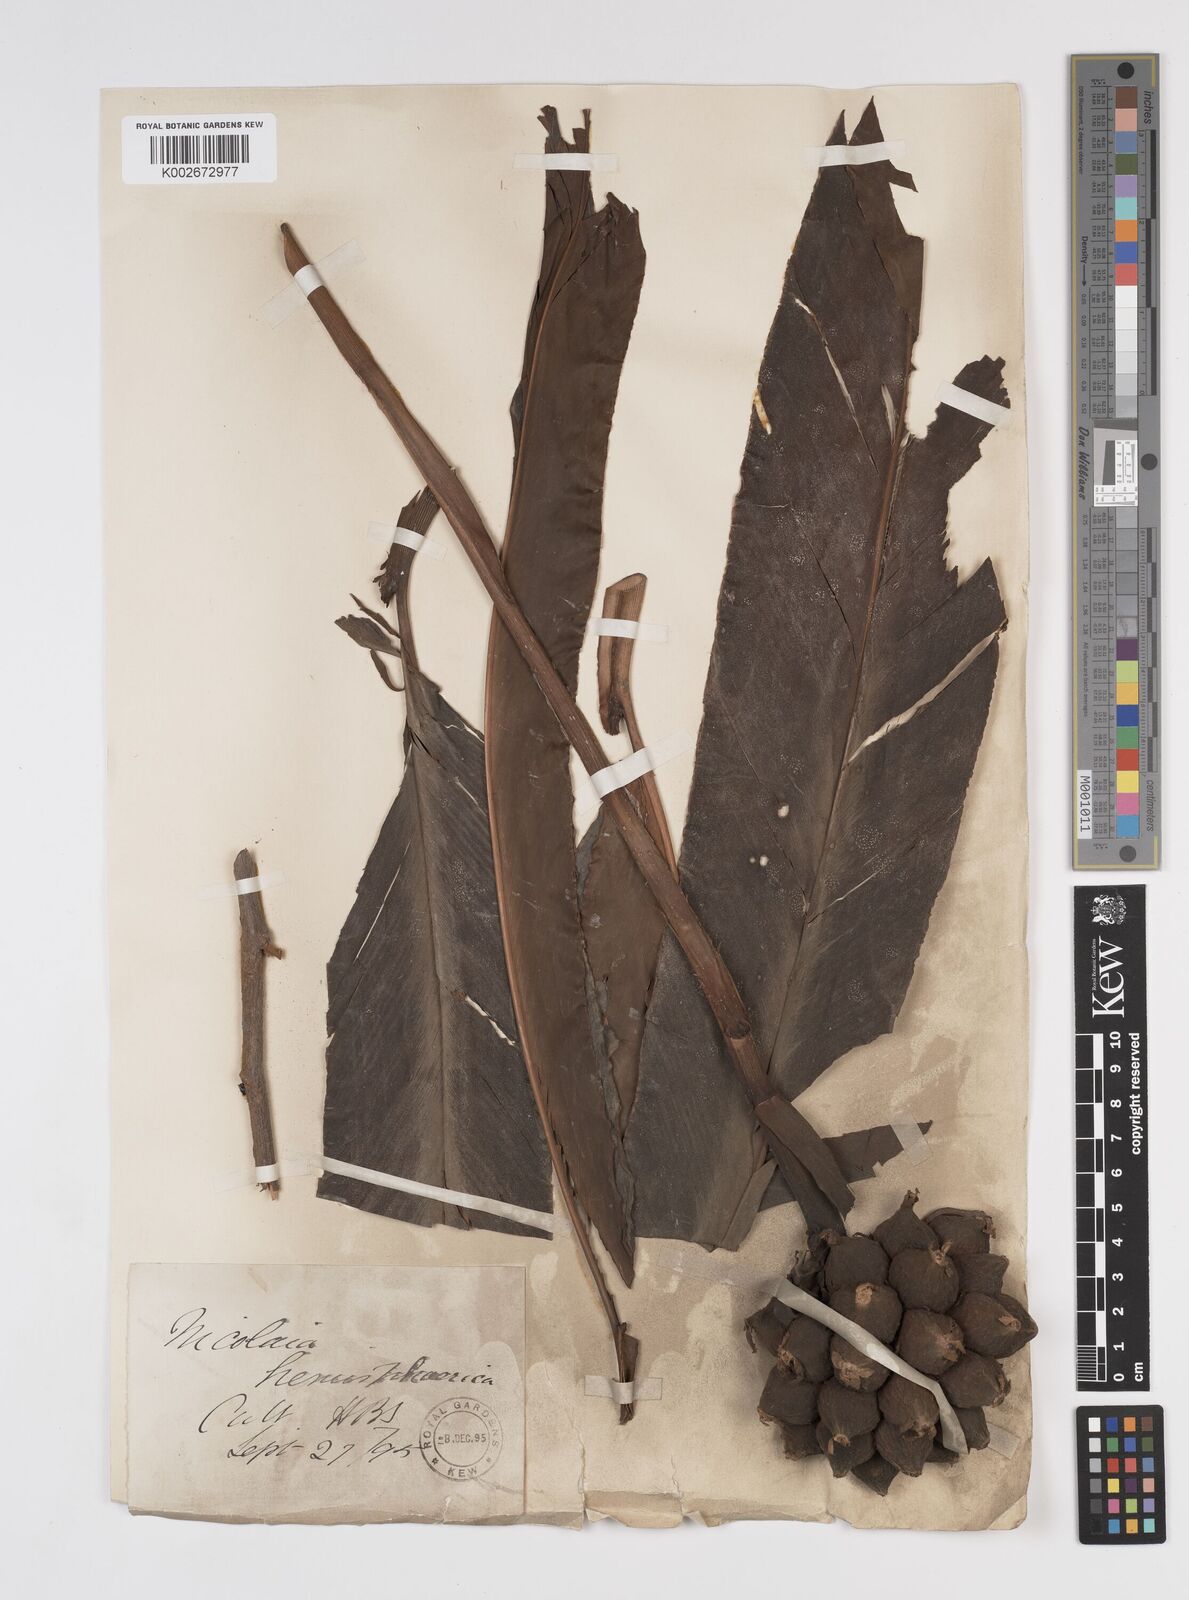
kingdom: Plantae
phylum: Tracheophyta
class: Liliopsida
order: Zingiberales
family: Zingiberaceae
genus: Etlingera
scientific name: Etlingera hemisphaerica
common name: Black tulip
